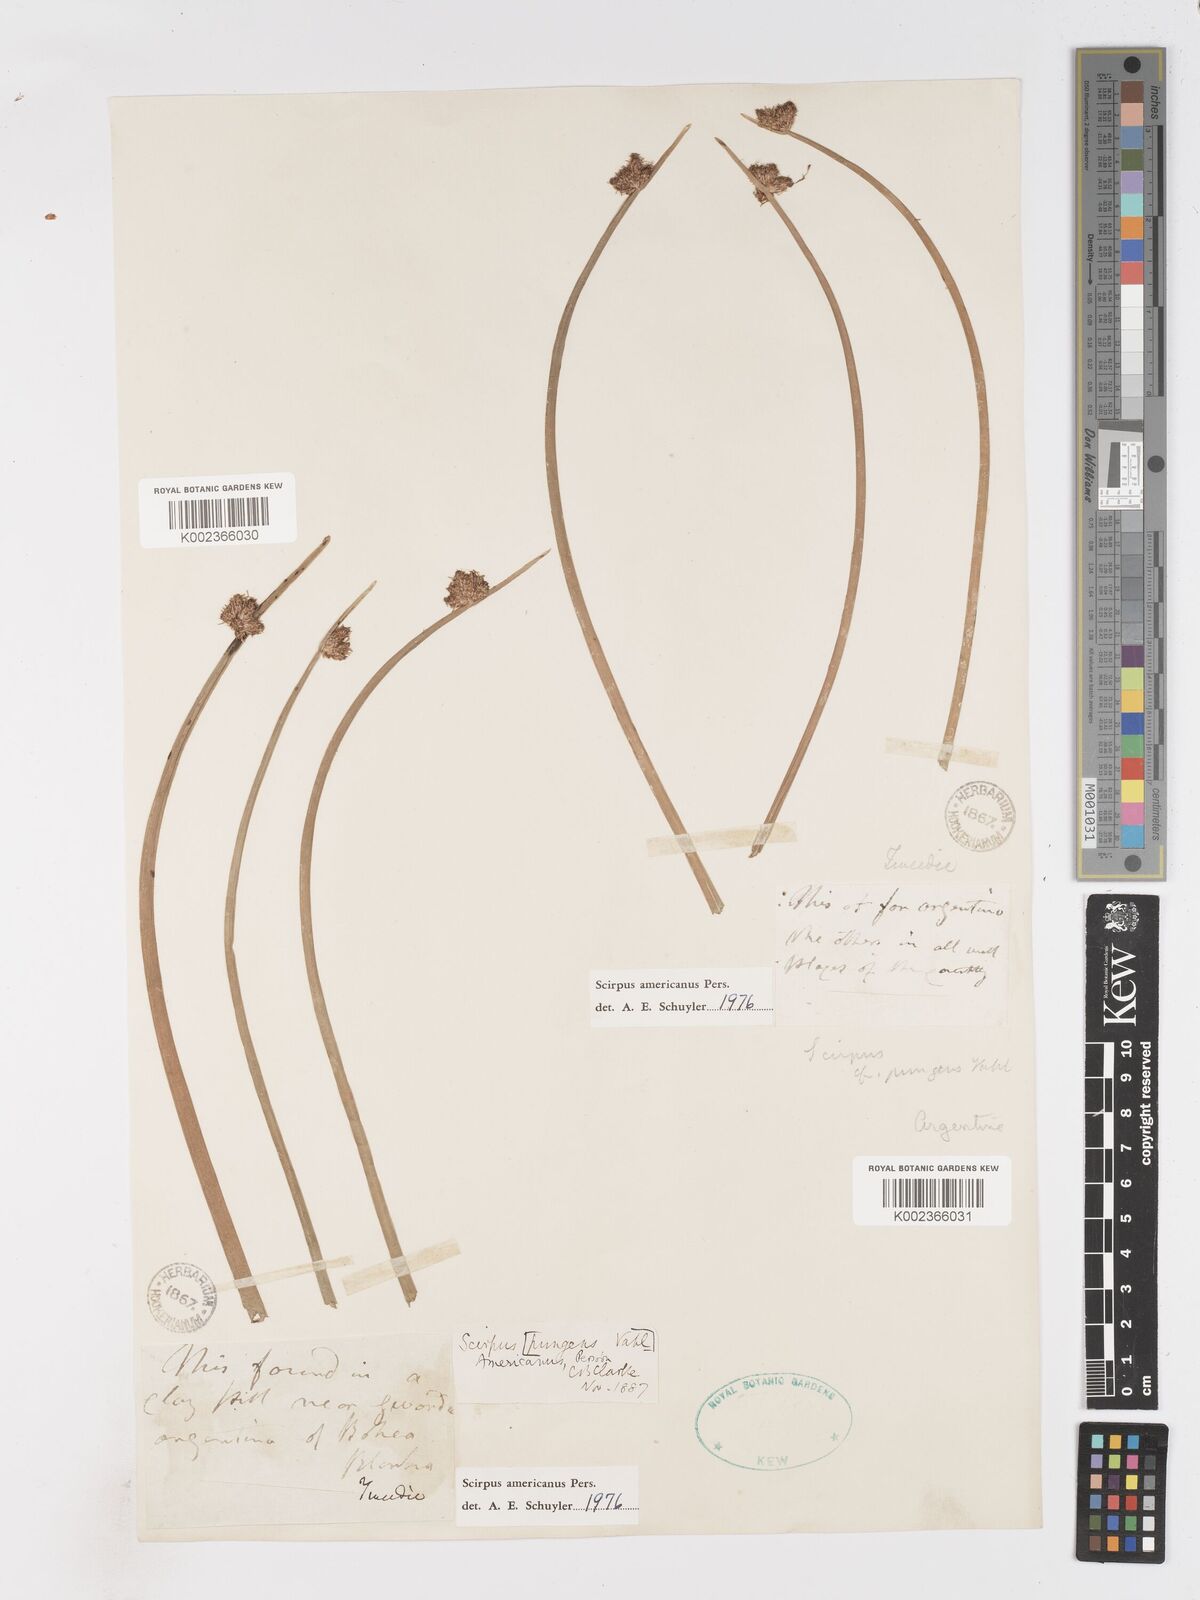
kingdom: Plantae
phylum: Tracheophyta
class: Liliopsida
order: Poales
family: Cyperaceae
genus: Schoenoplectus
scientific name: Schoenoplectus americanus
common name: American three-square bulrush
